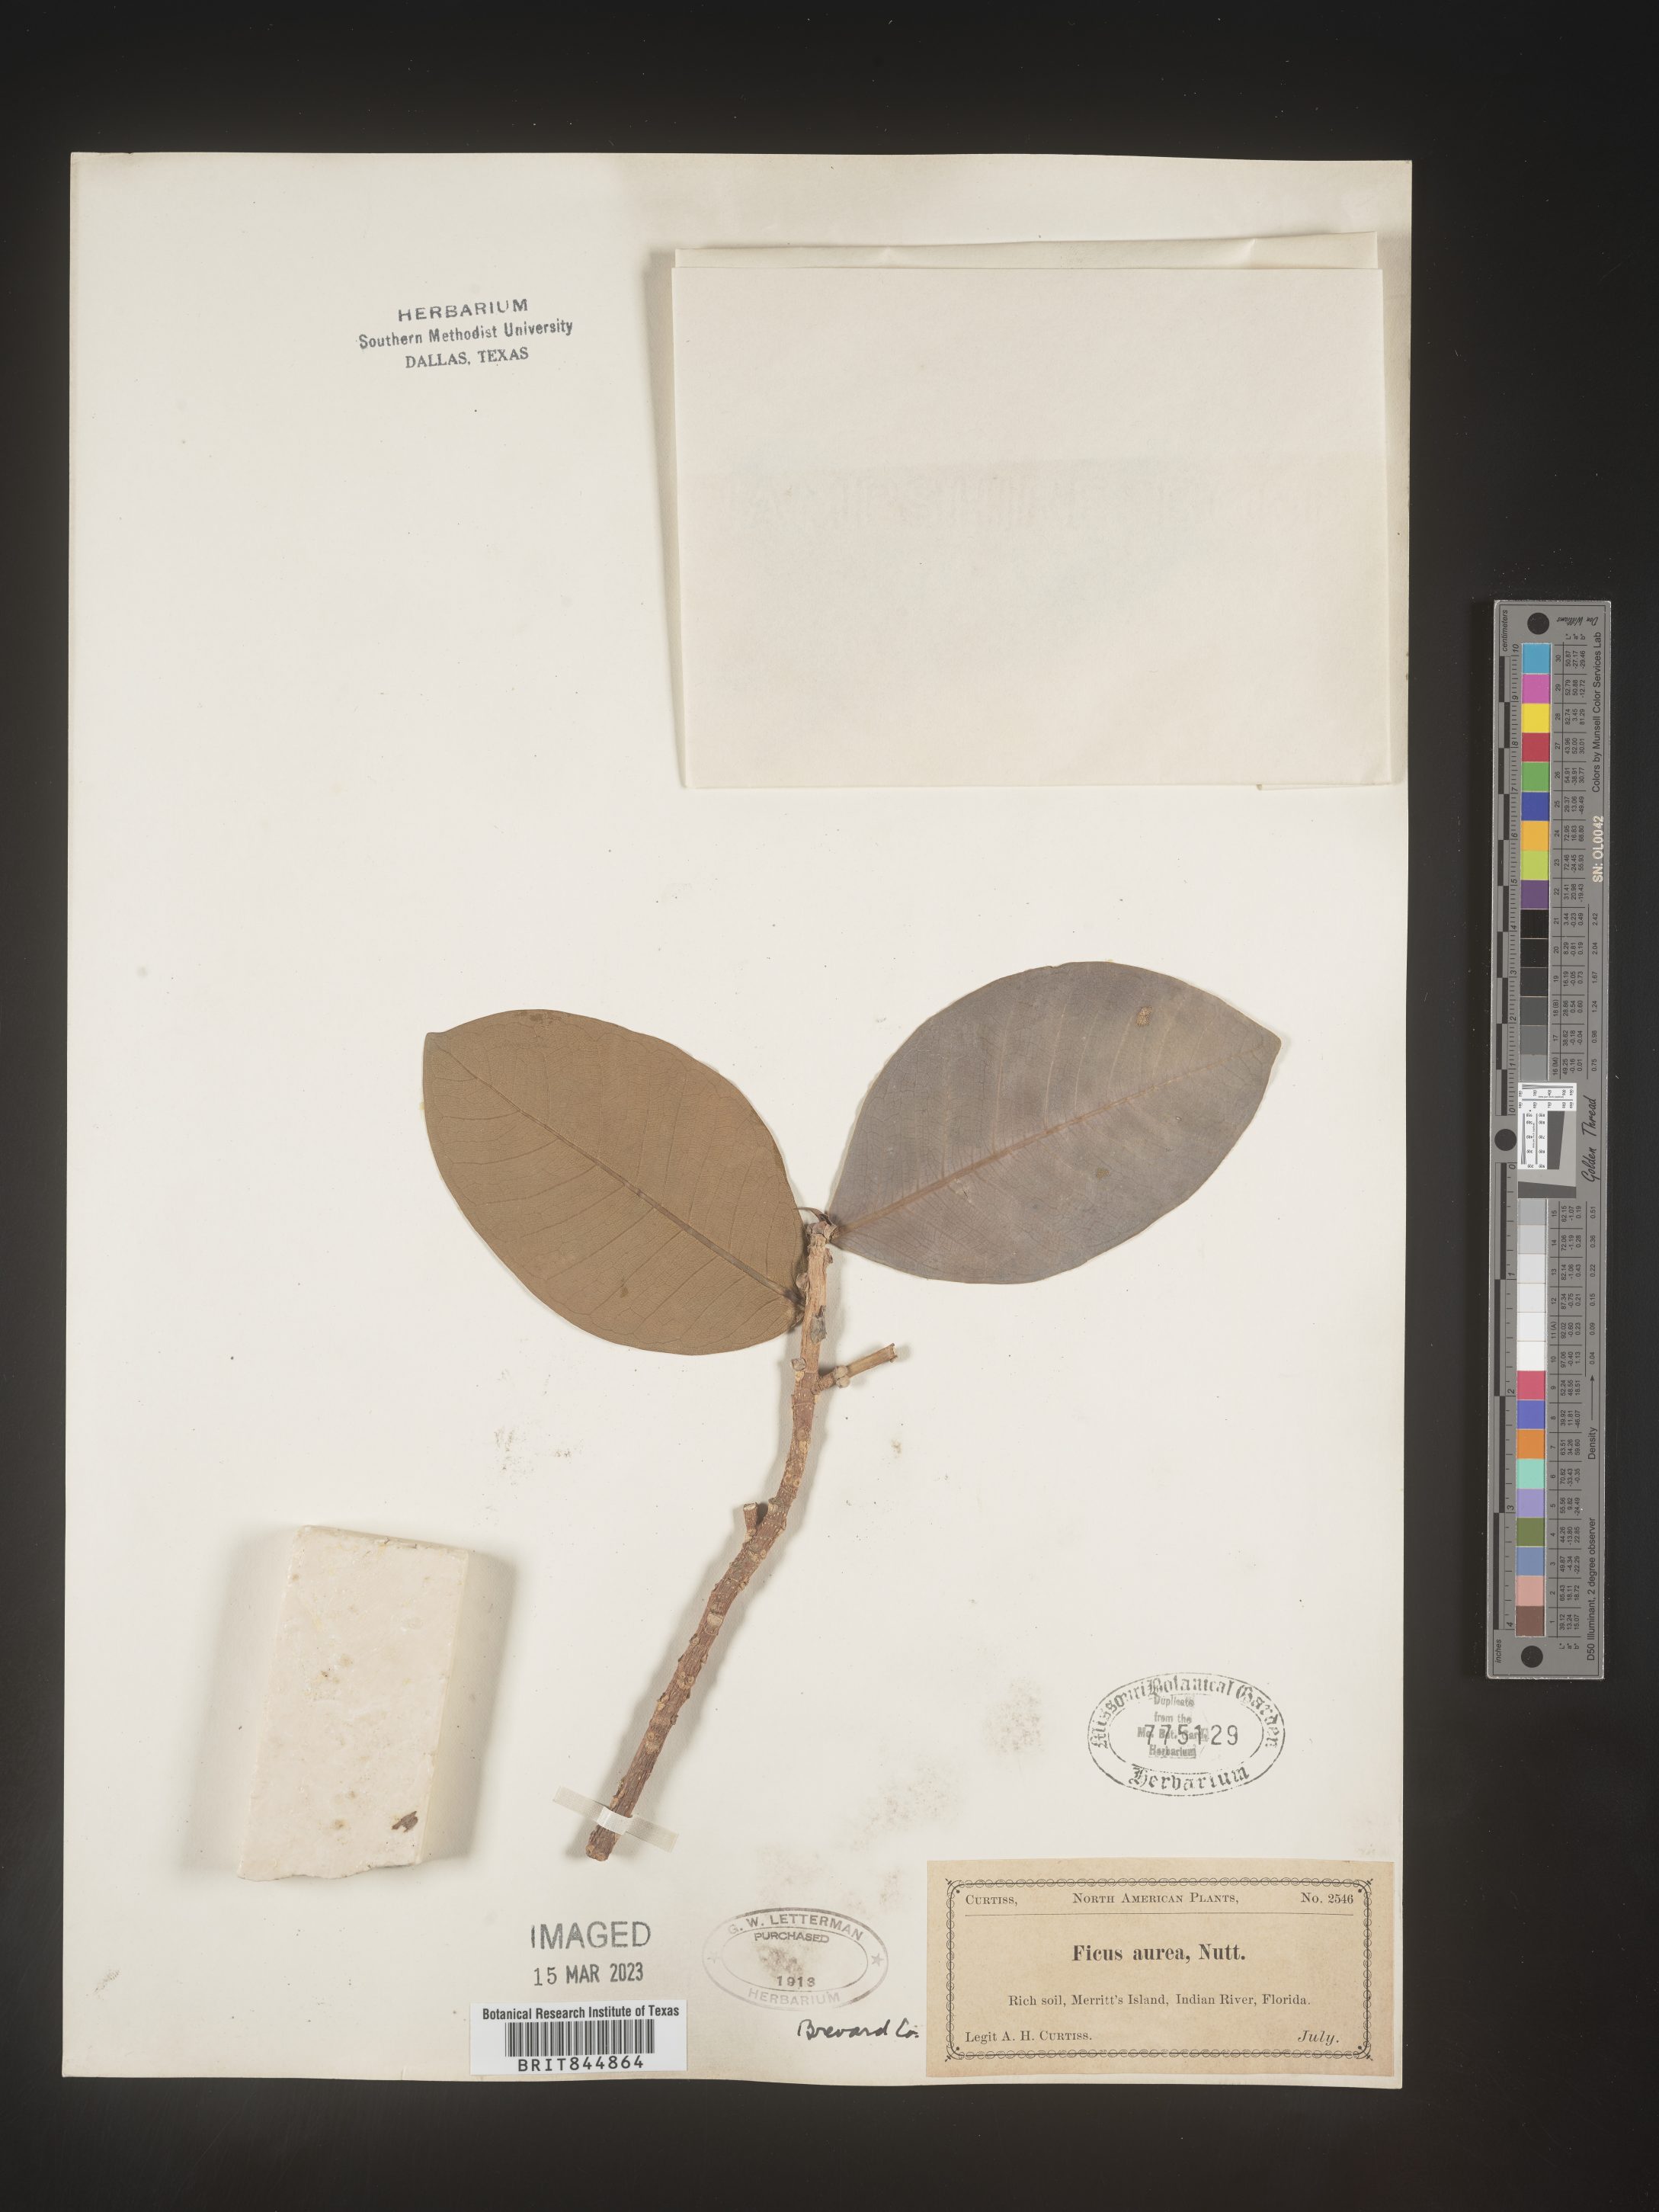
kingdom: Plantae
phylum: Tracheophyta
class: Magnoliopsida
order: Rosales
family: Moraceae
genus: Ficus
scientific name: Ficus
